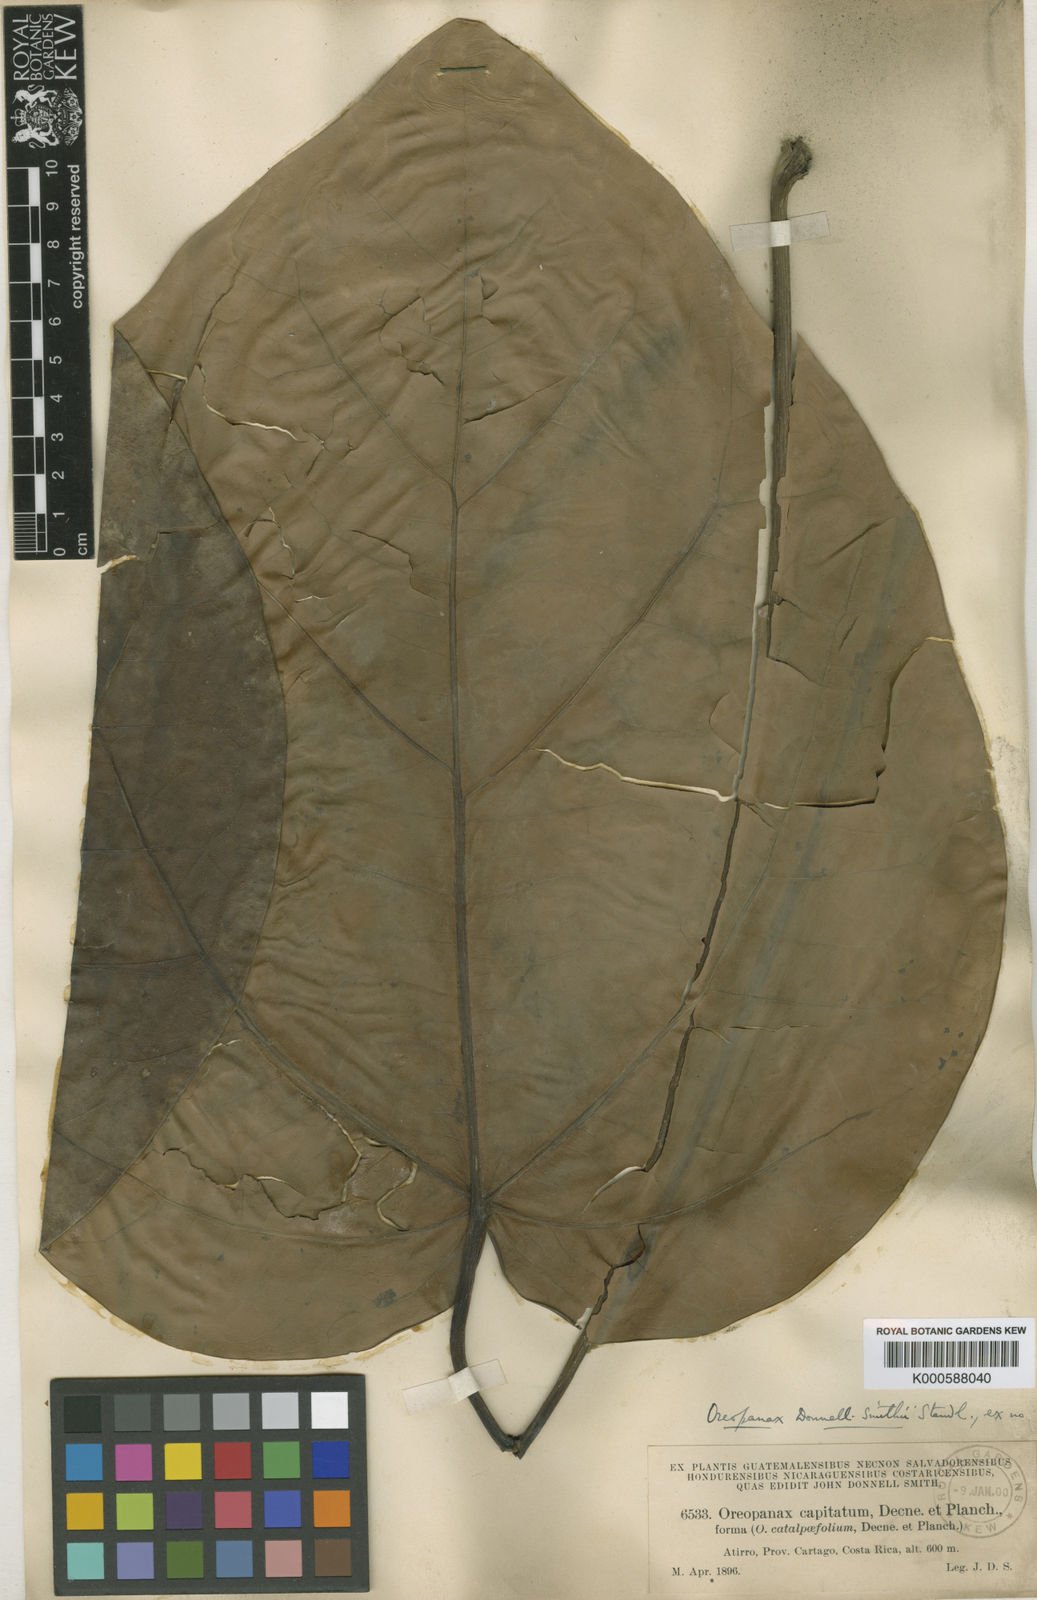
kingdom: Plantae
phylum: Tracheophyta
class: Magnoliopsida
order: Apiales
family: Araliaceae
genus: Oreopanax
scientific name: Oreopanax donnell-smithii
